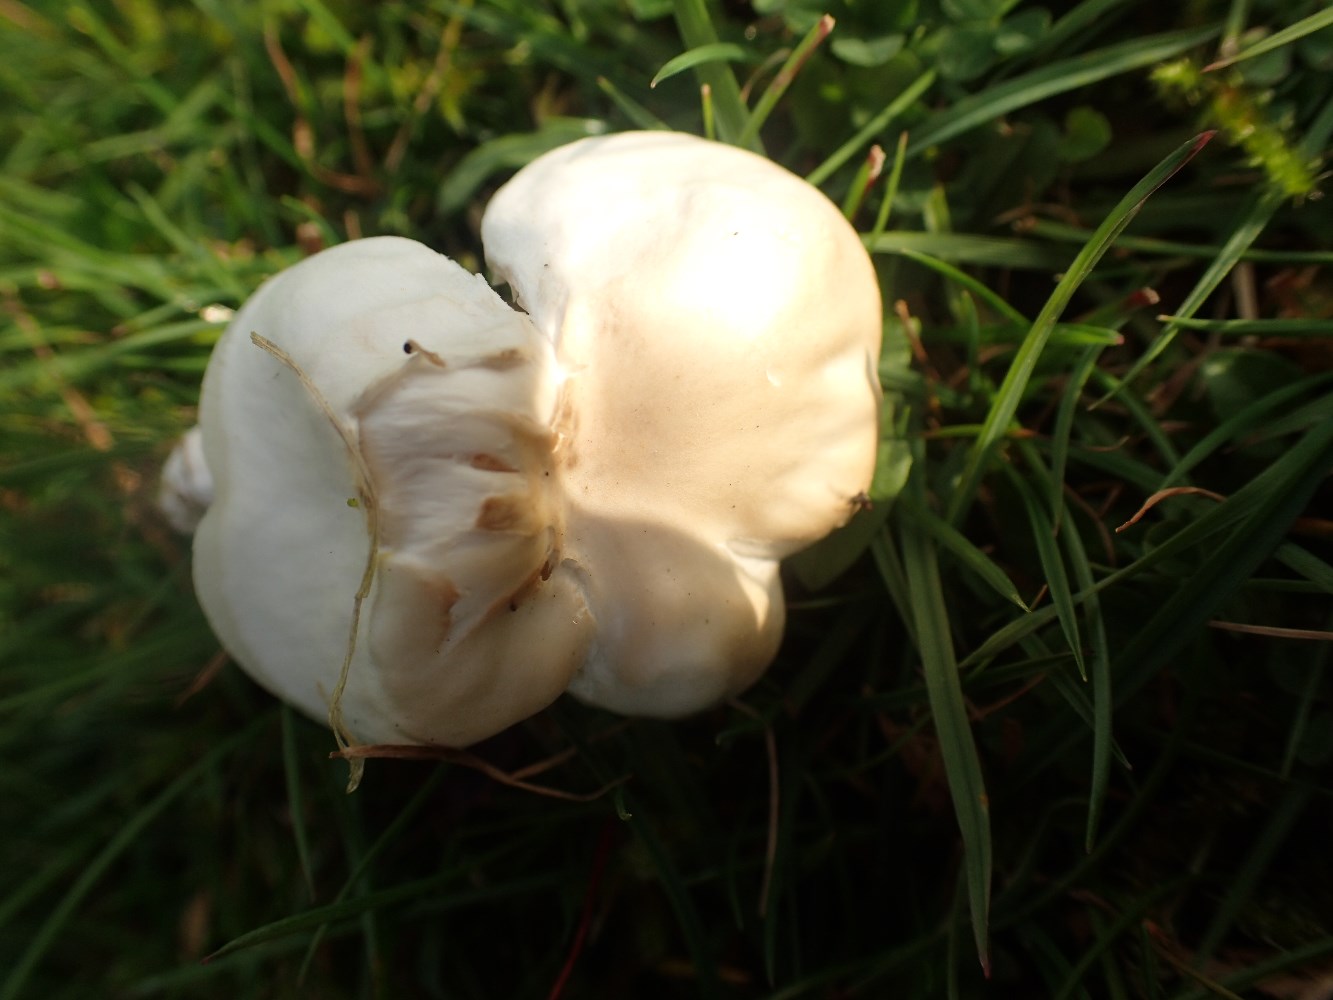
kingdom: Fungi
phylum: Basidiomycota
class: Agaricomycetes
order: Agaricales
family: Hygrophoraceae
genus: Cuphophyllus
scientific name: Cuphophyllus pratensis
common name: eng-vokshat
